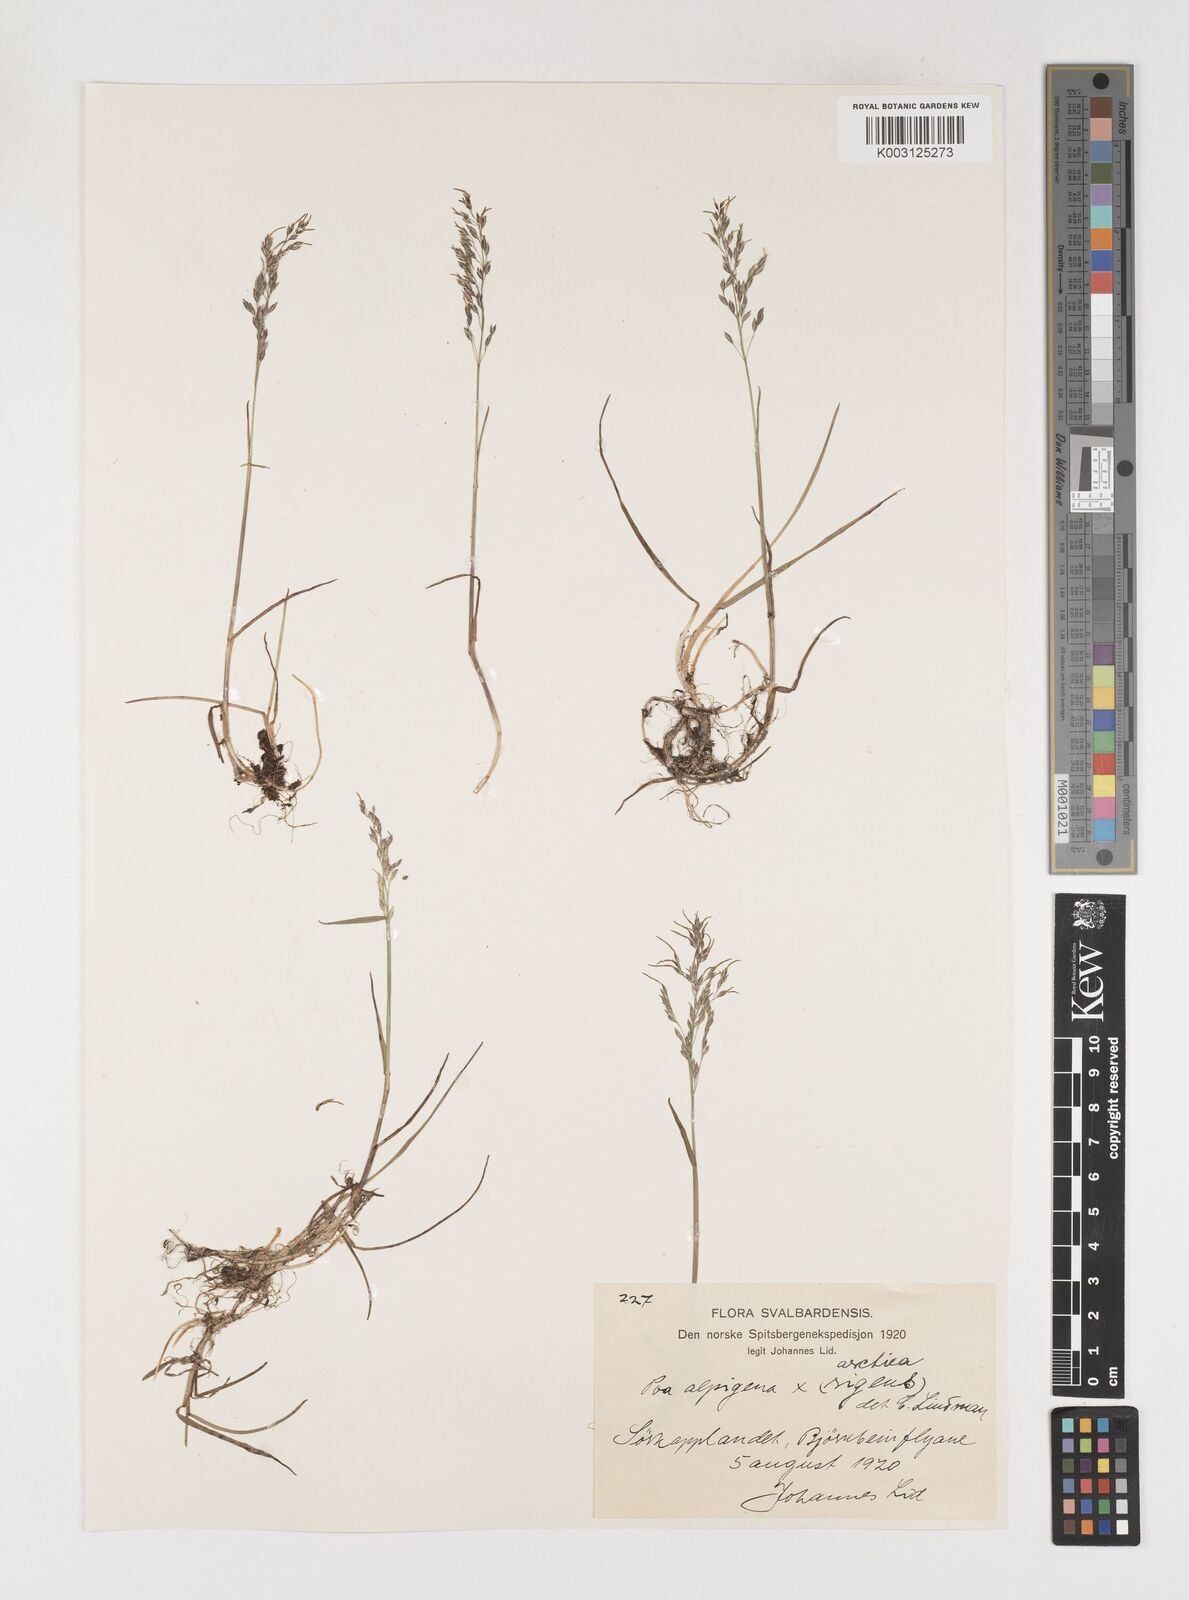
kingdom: Plantae
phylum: Tracheophyta
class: Liliopsida
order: Poales
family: Poaceae
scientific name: Poaceae
